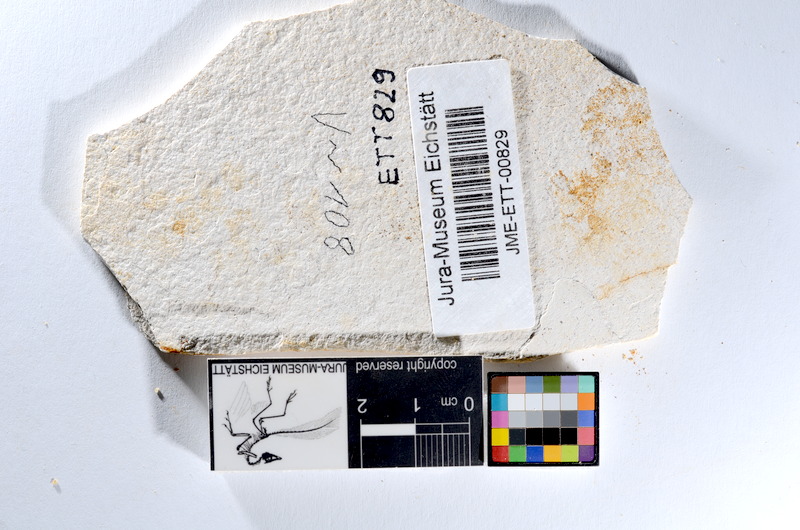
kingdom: Animalia
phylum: Chordata
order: Salmoniformes
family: Orthogonikleithridae
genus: Orthogonikleithrus
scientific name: Orthogonikleithrus hoelli
